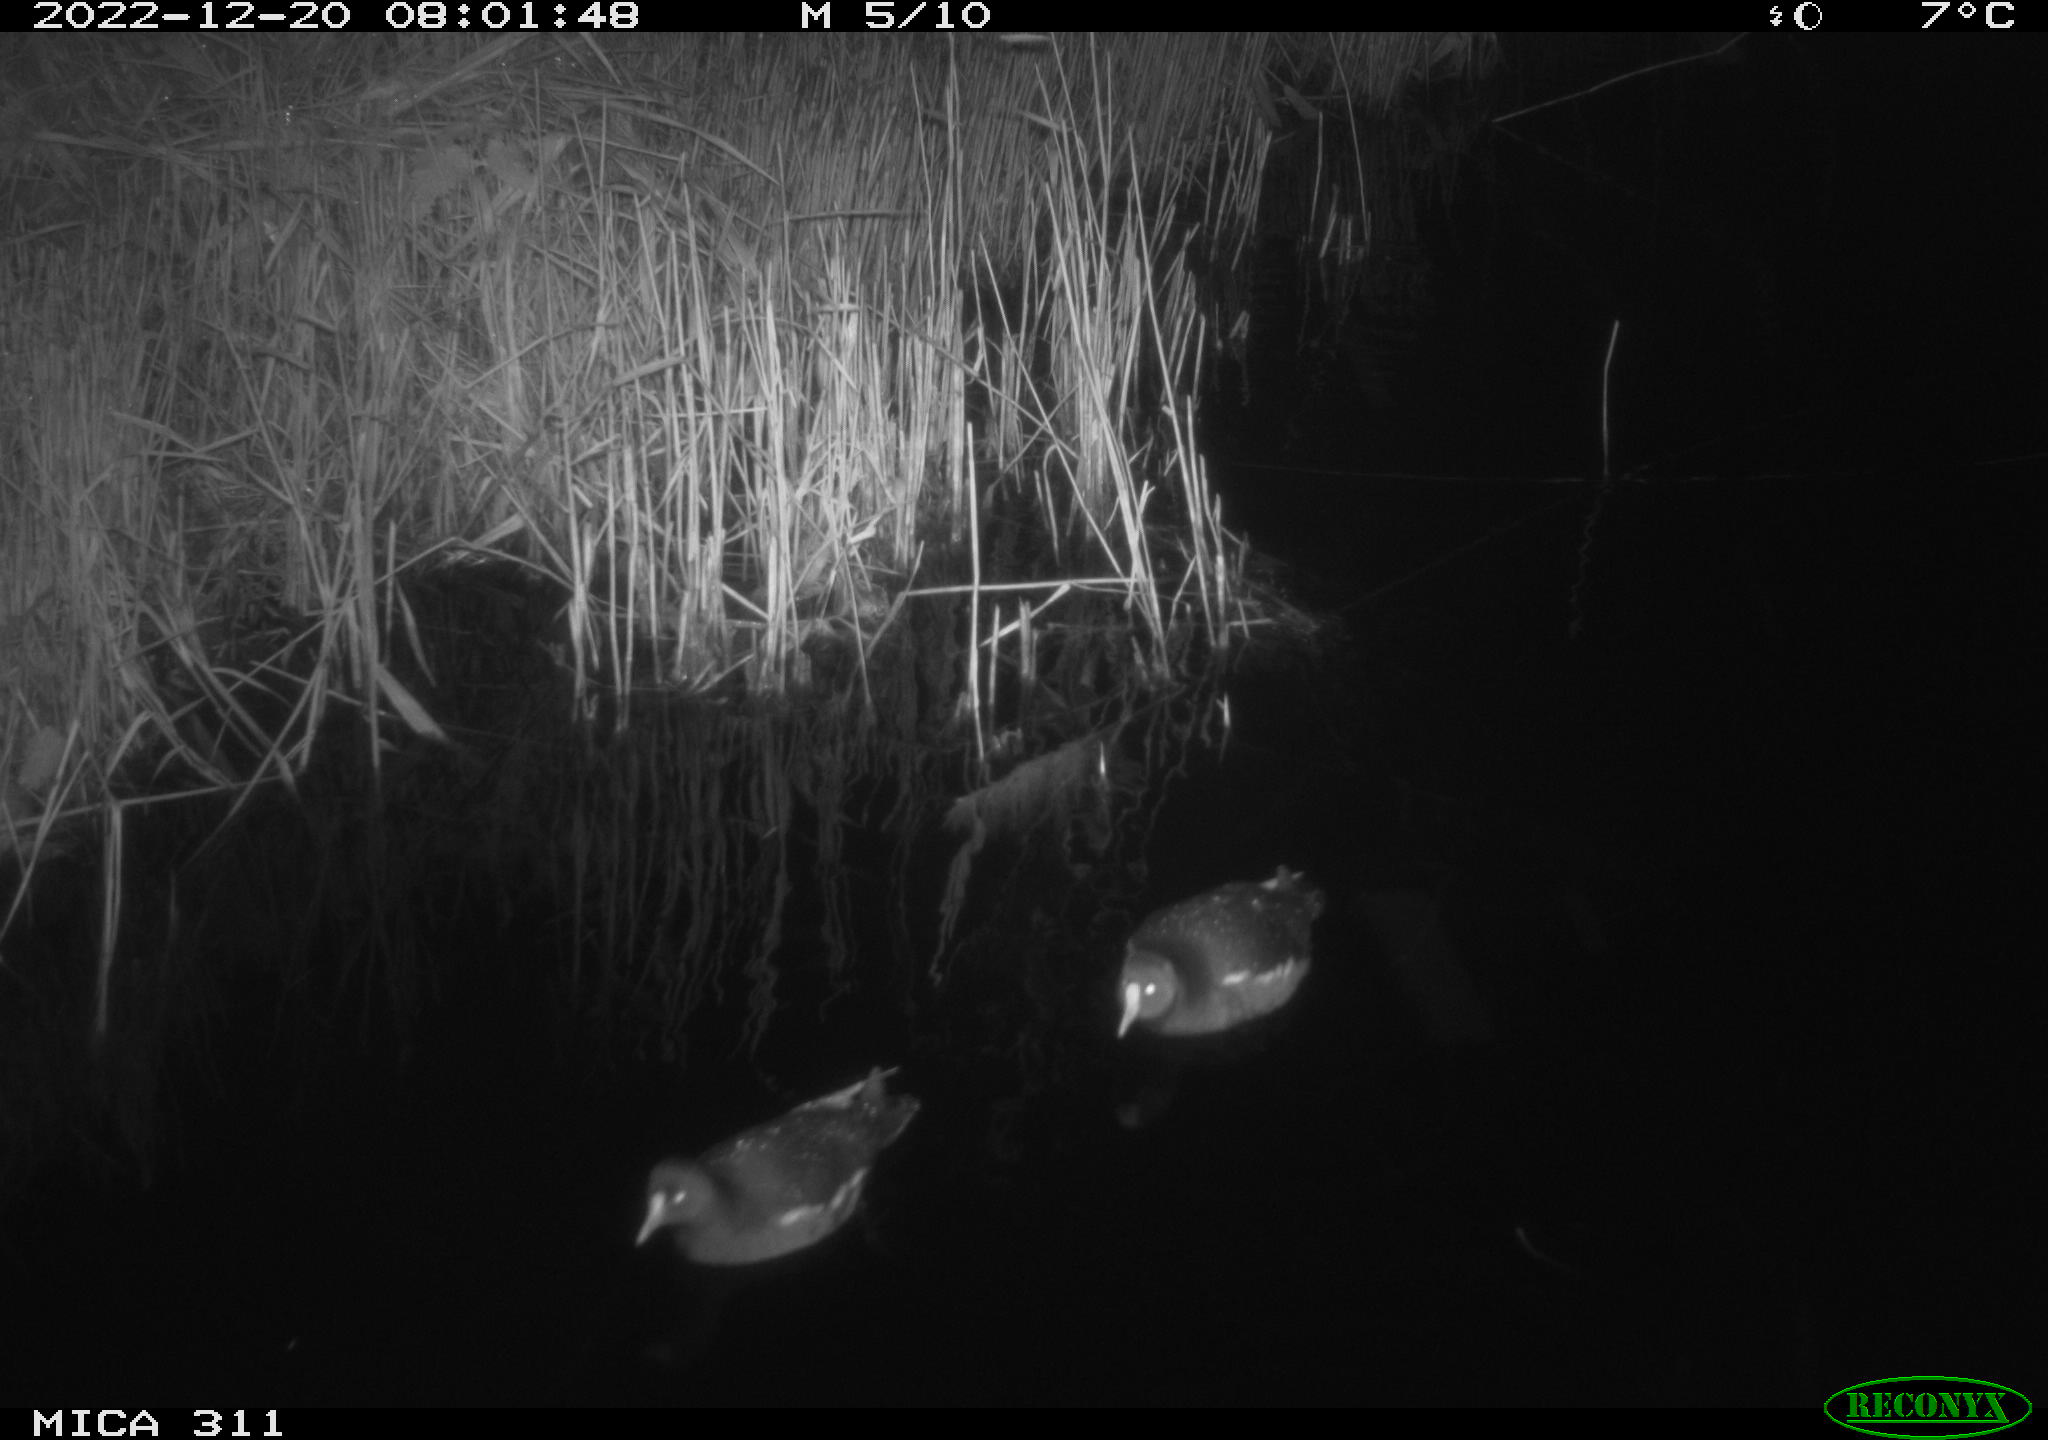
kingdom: Animalia
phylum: Chordata
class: Aves
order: Gruiformes
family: Rallidae
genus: Gallinula
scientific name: Gallinula chloropus
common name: Common moorhen
